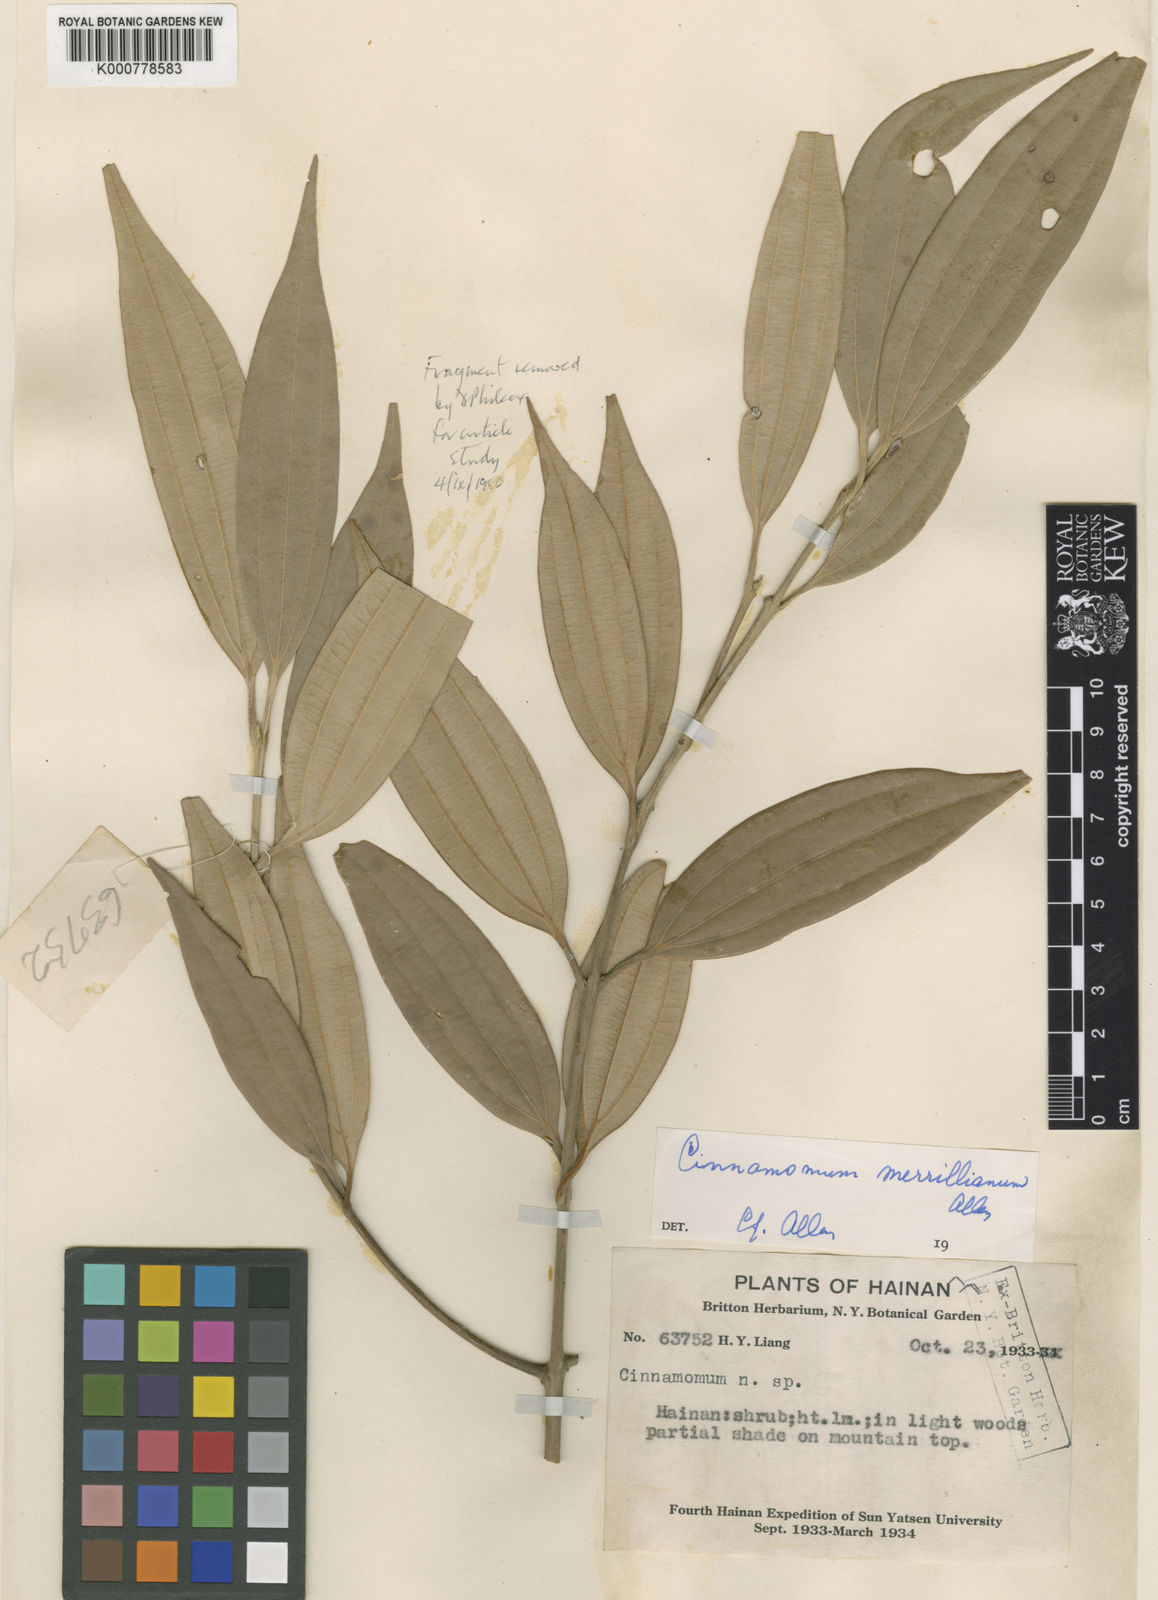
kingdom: Plantae
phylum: Tracheophyta
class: Magnoliopsida
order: Laurales
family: Lauraceae
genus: Cinnamomum
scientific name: Cinnamomum tsangii
